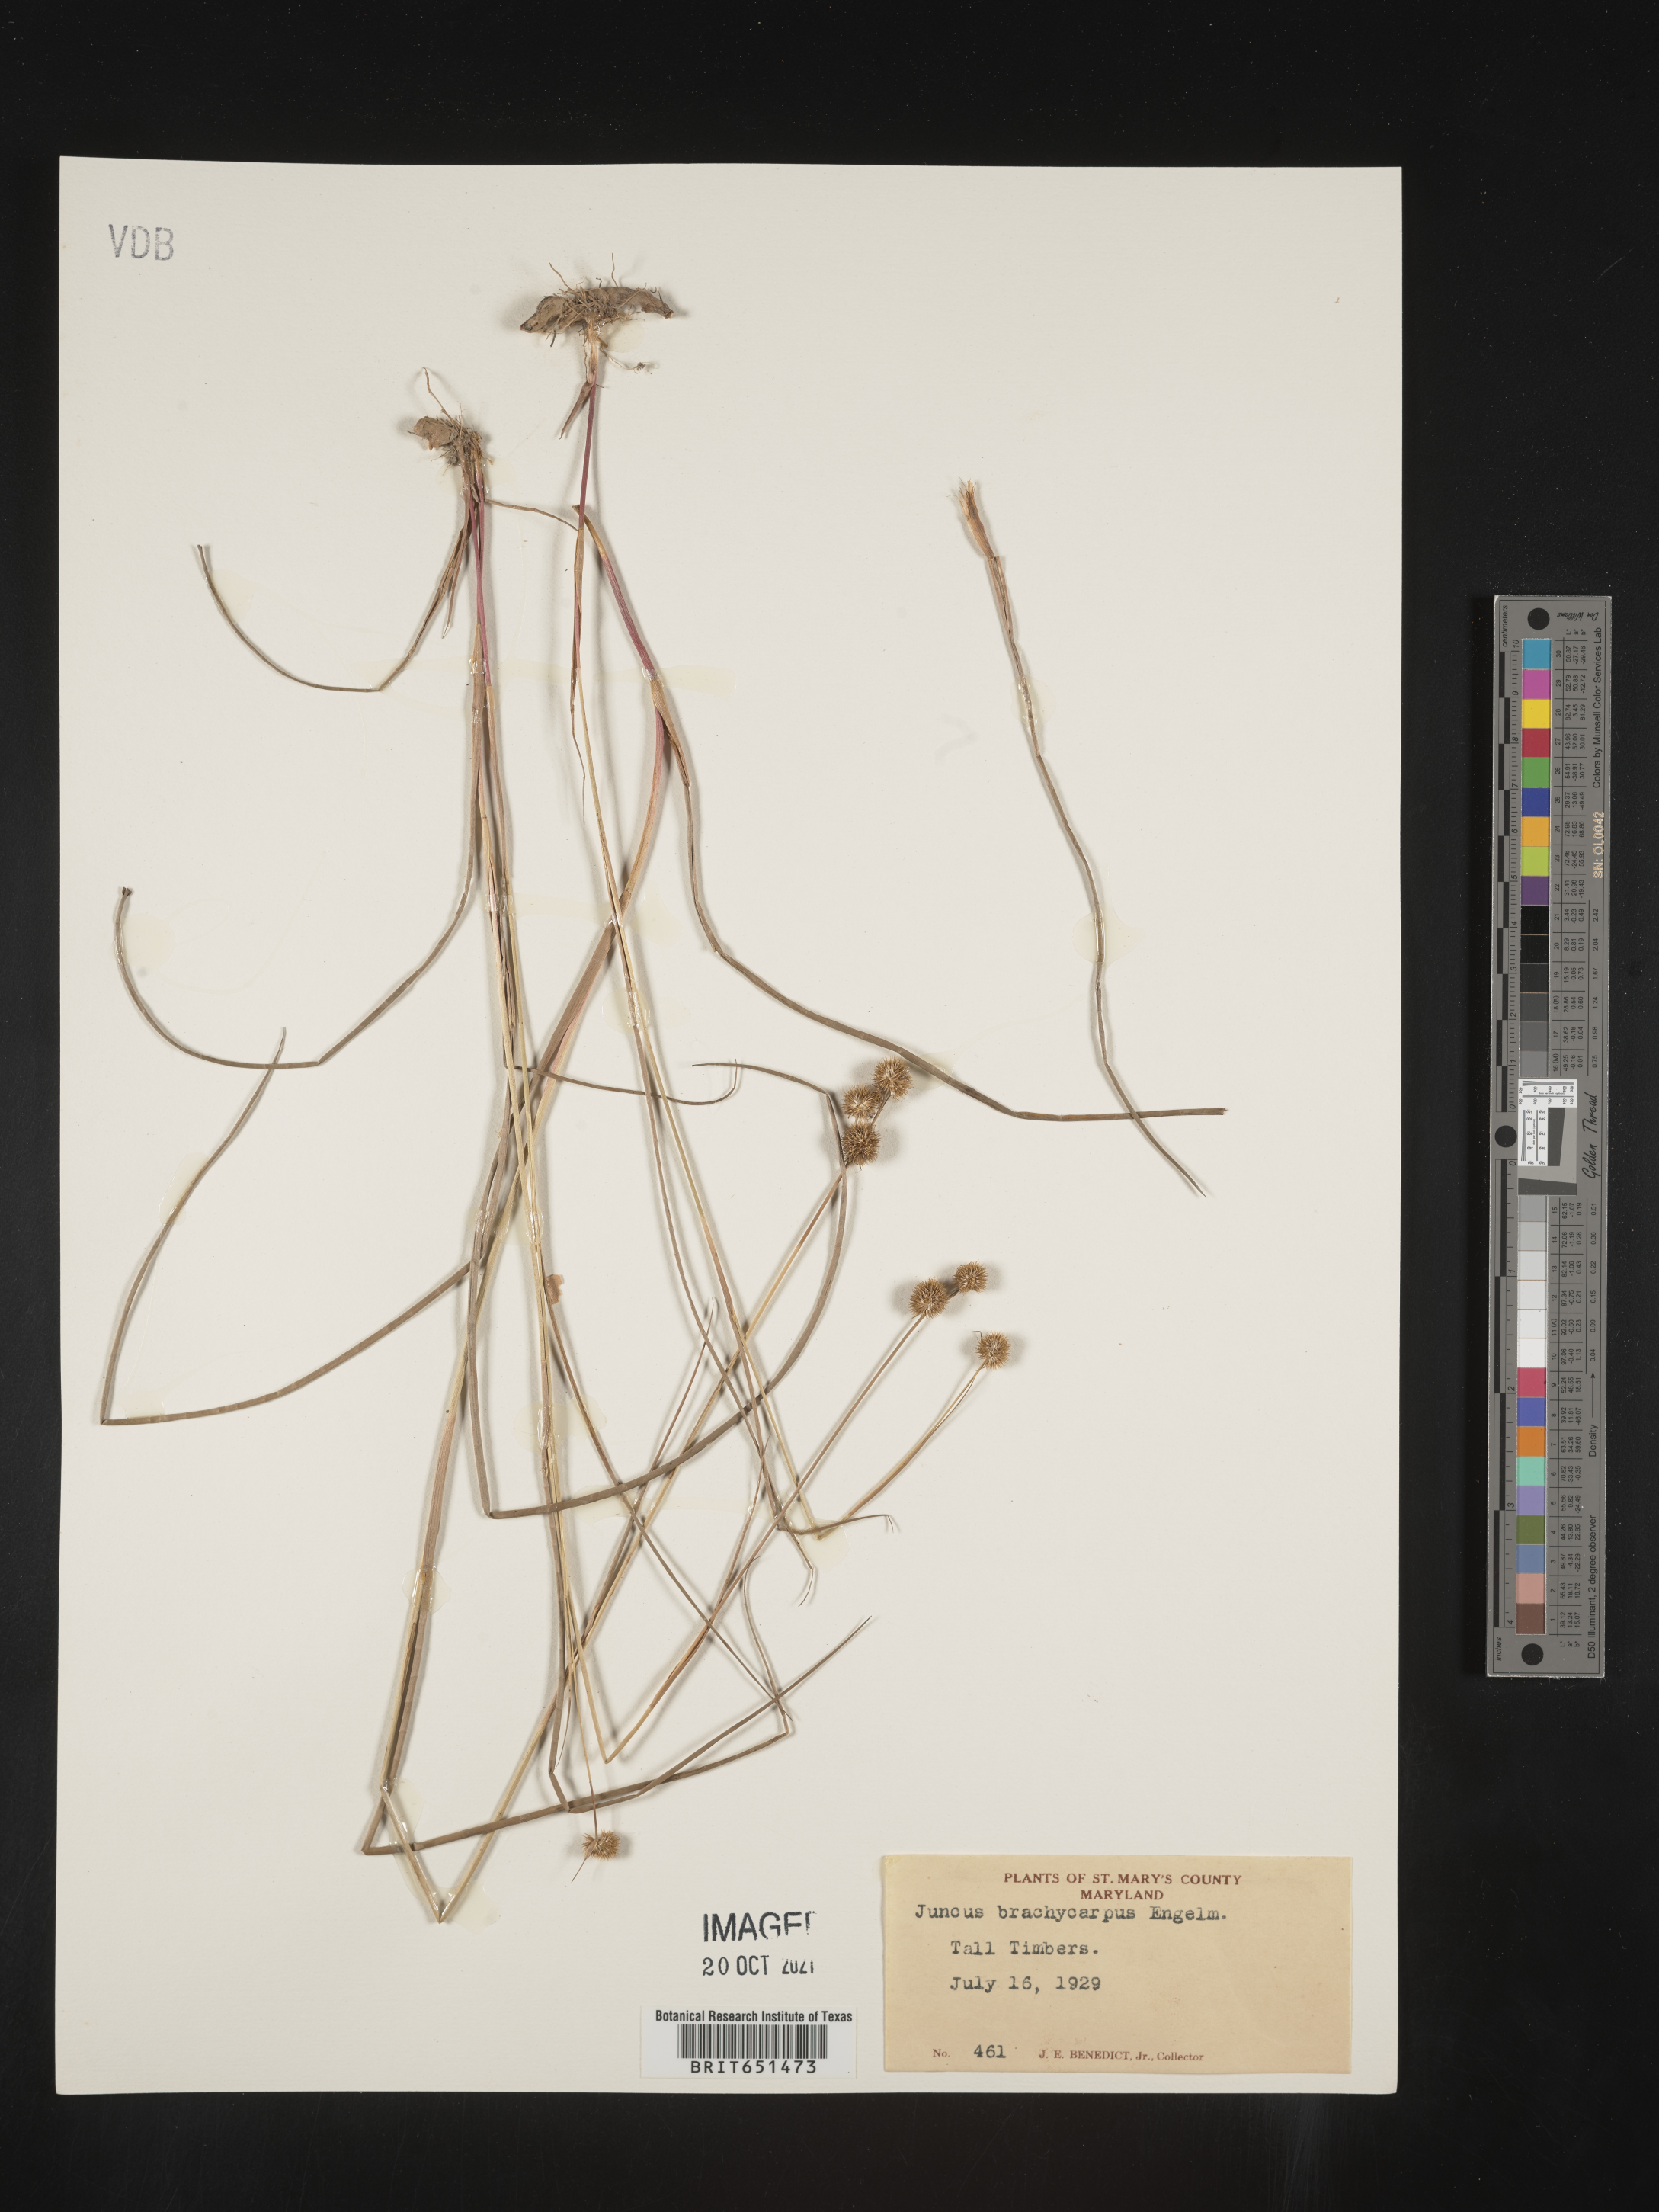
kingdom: Plantae
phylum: Tracheophyta
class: Liliopsida
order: Poales
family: Juncaceae
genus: Juncus
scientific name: Juncus brachycarpus
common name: Shore rush
